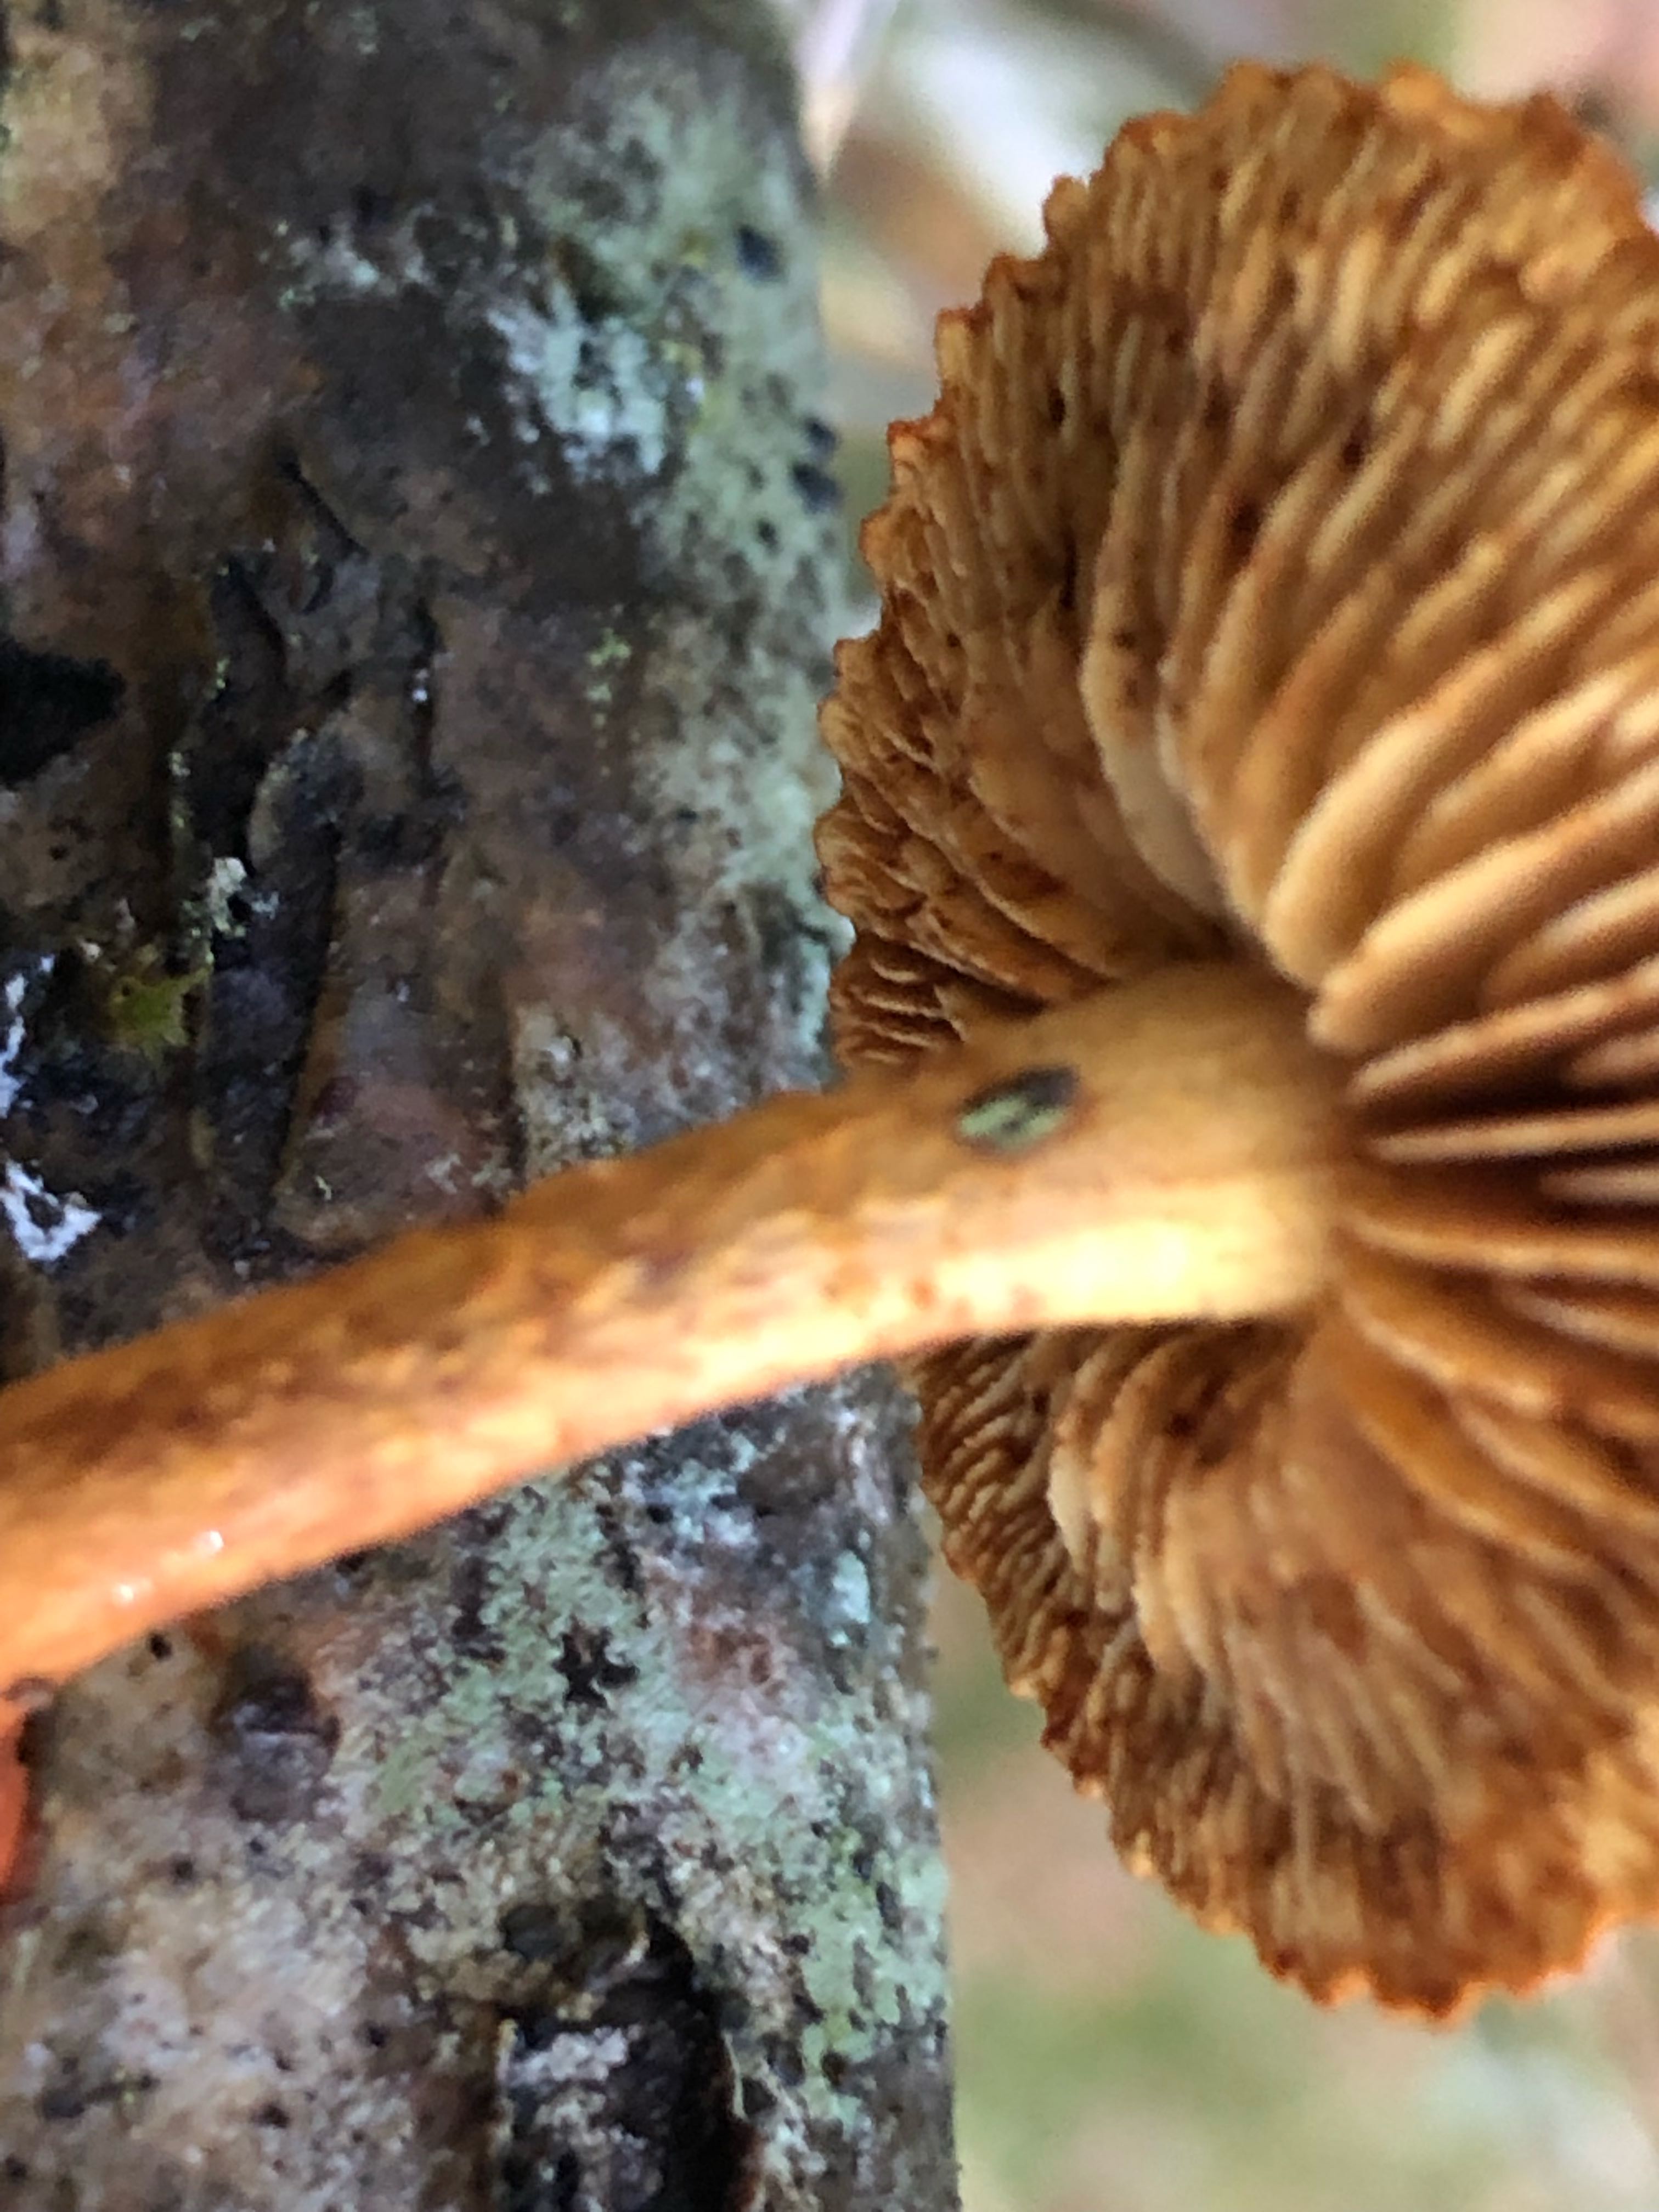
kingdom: Fungi
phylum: Basidiomycota
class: Agaricomycetes
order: Agaricales
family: Strophariaceae
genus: Pholiota
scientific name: Pholiota tuberculosa
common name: finskællet skælhat
